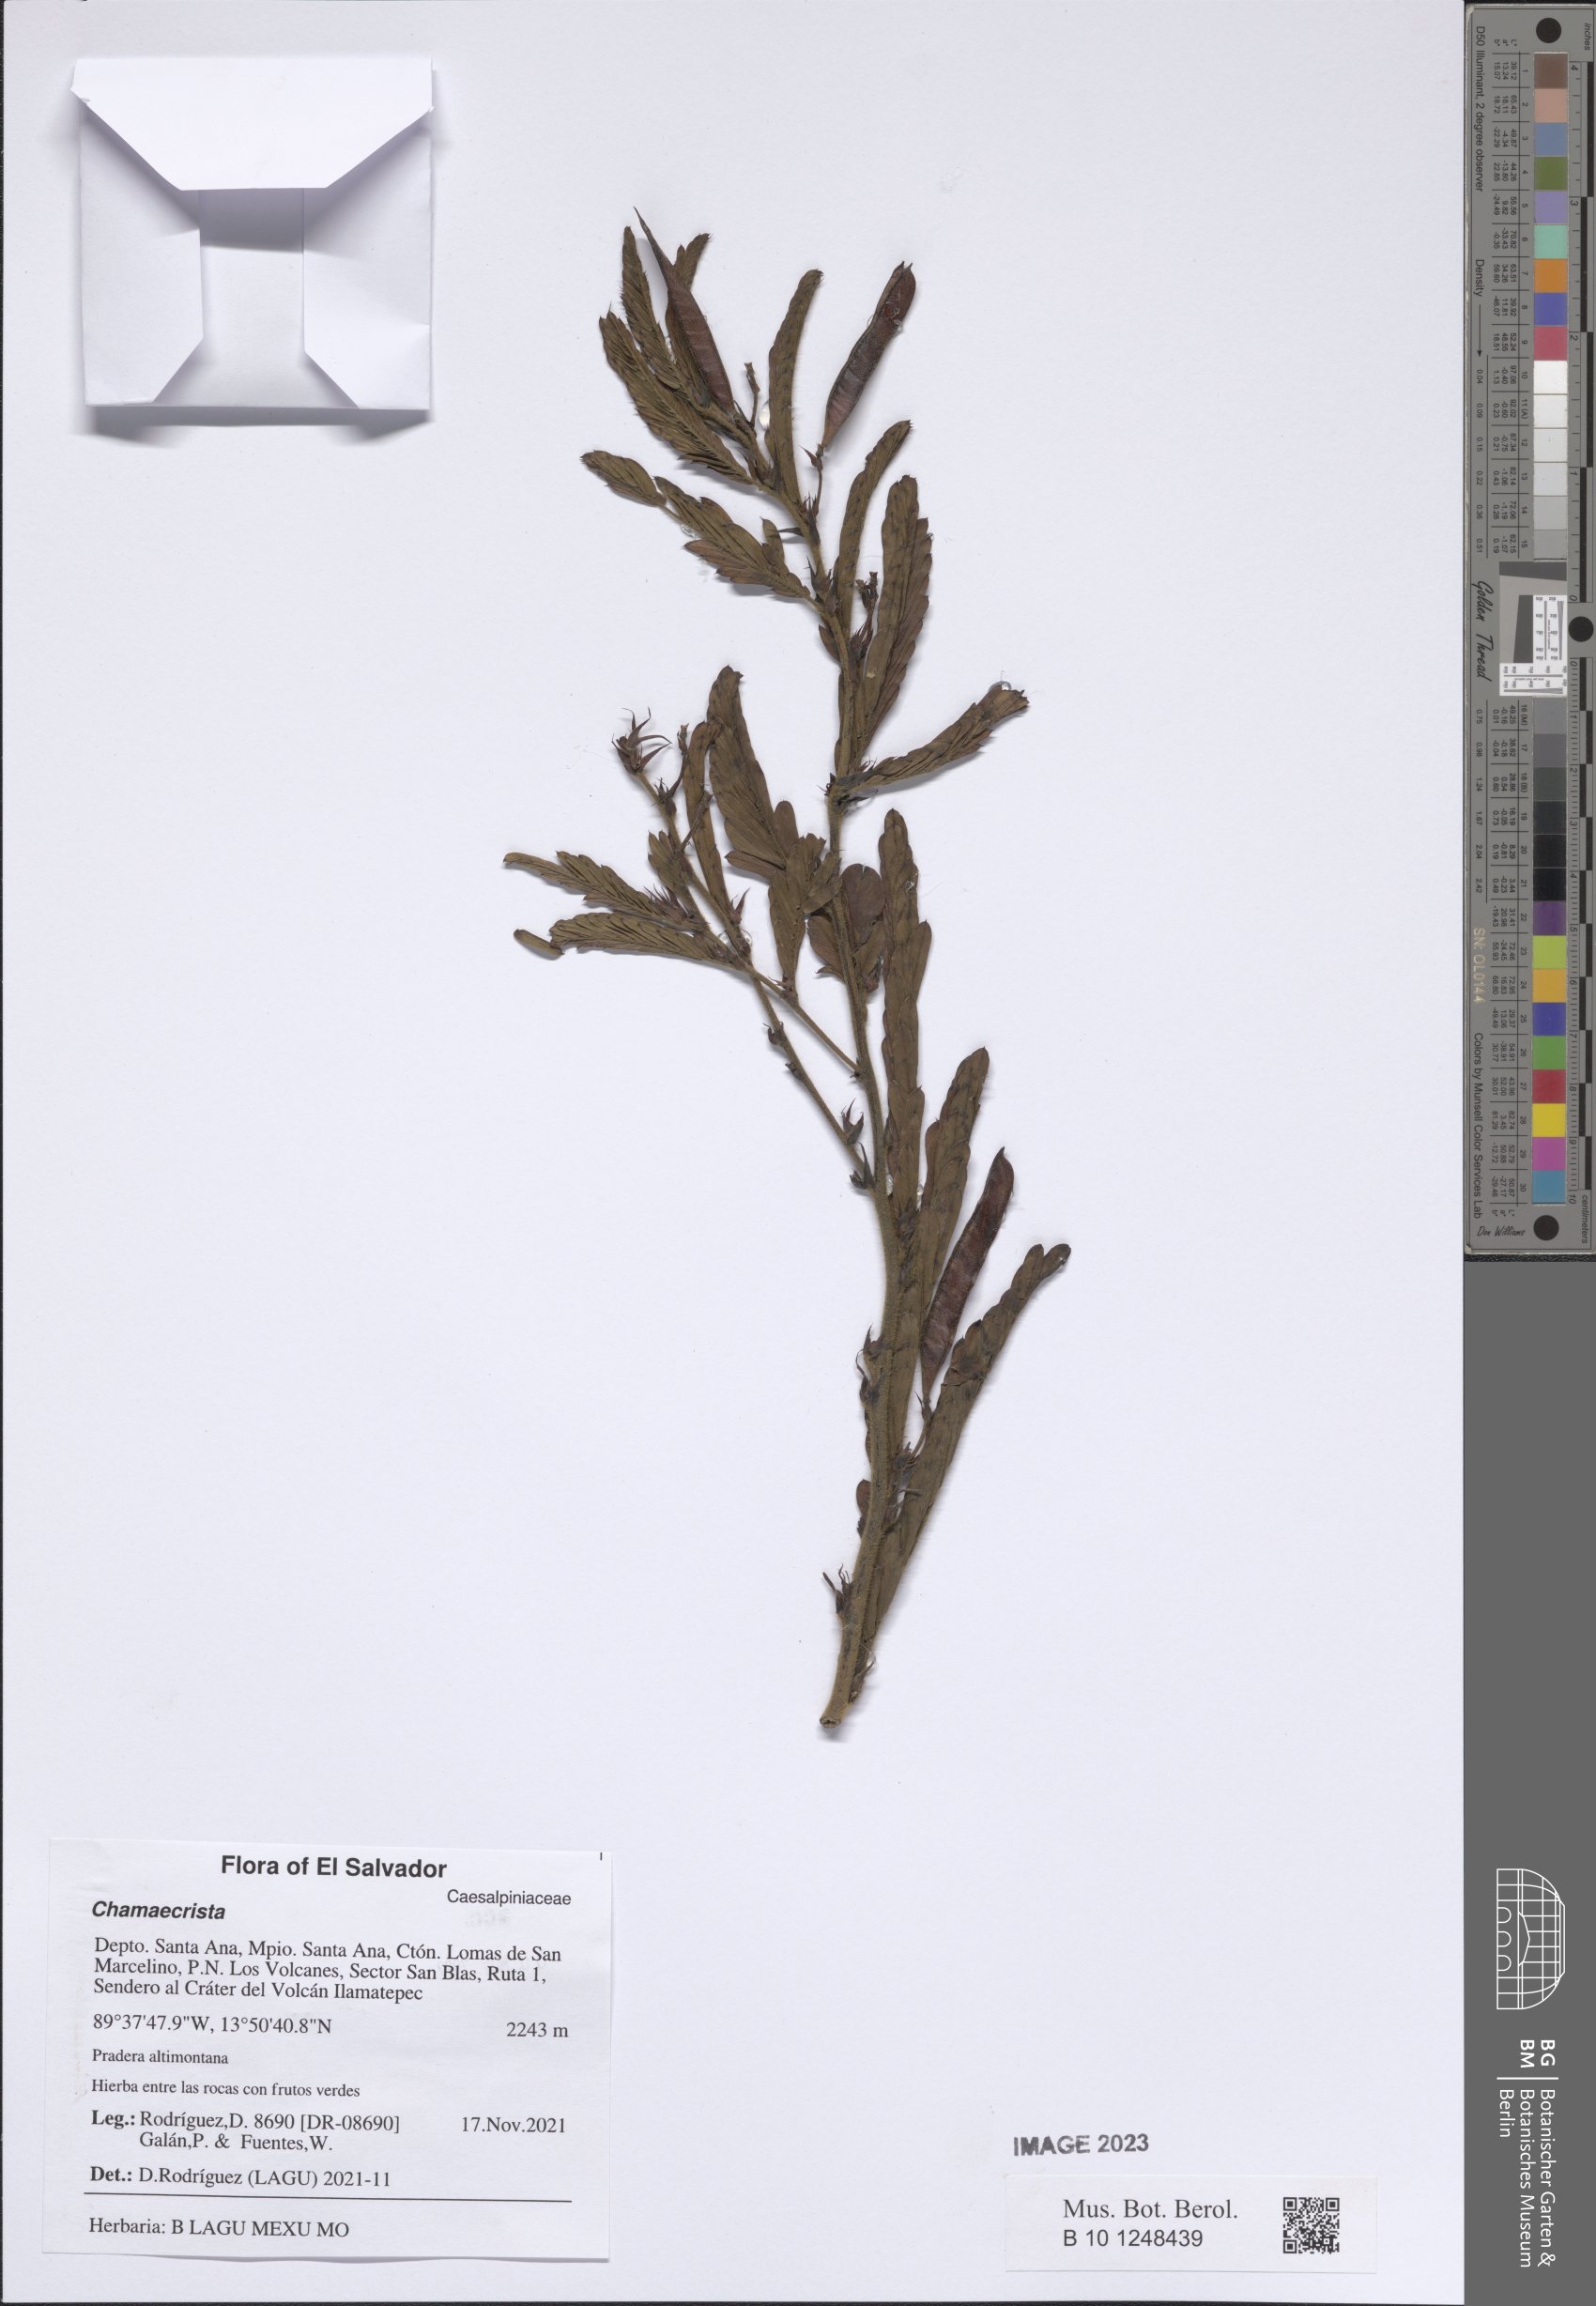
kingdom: Plantae
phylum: Tracheophyta
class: Magnoliopsida
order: Fabales
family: Fabaceae
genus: Chamaecrista
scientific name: Chamaecrista
